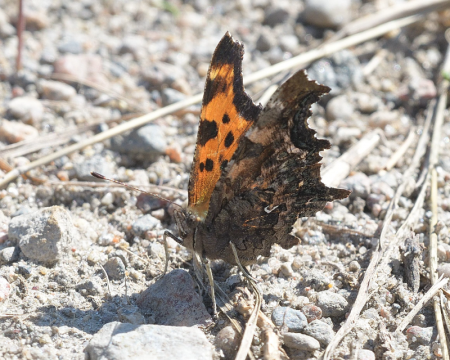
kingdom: Animalia
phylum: Arthropoda
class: Insecta
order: Lepidoptera
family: Nymphalidae
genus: Polygonia
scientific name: Polygonia faunus
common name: Green Comma
